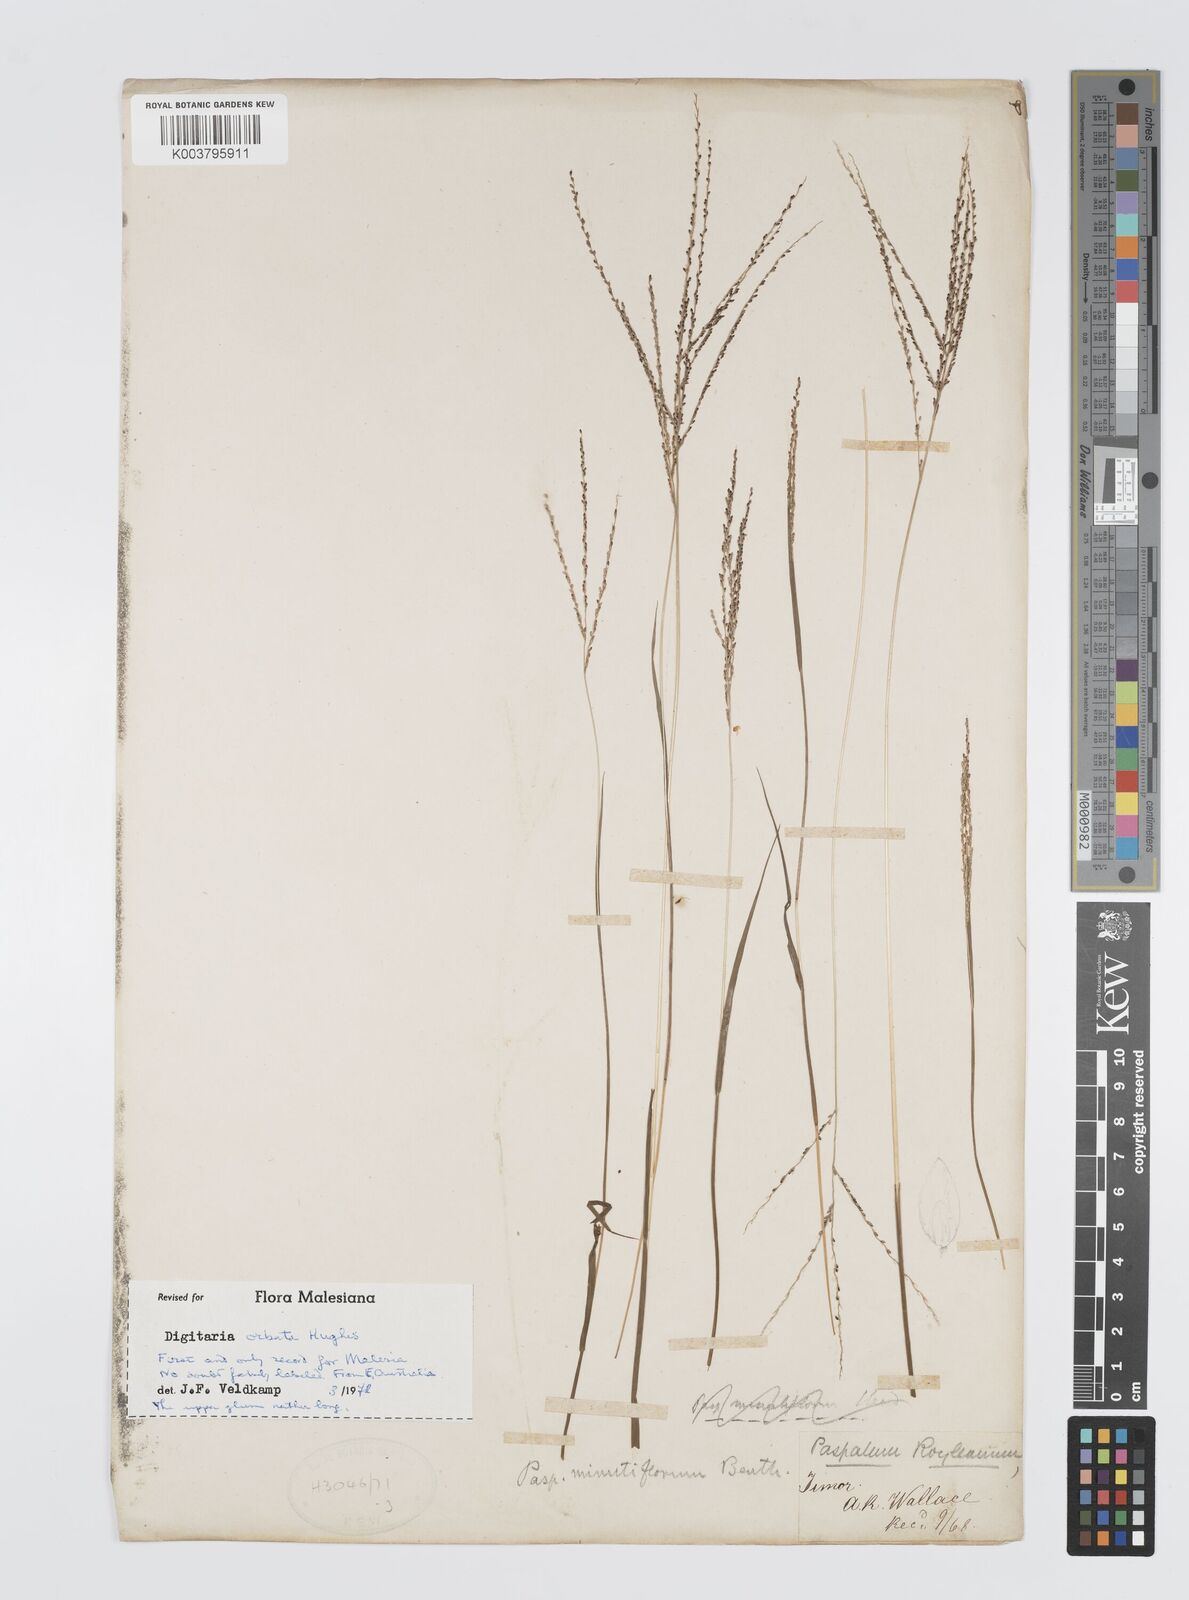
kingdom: Plantae
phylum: Tracheophyta
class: Liliopsida
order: Poales
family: Poaceae
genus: Digitaria
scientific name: Digitaria orbata
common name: Crabgrass
